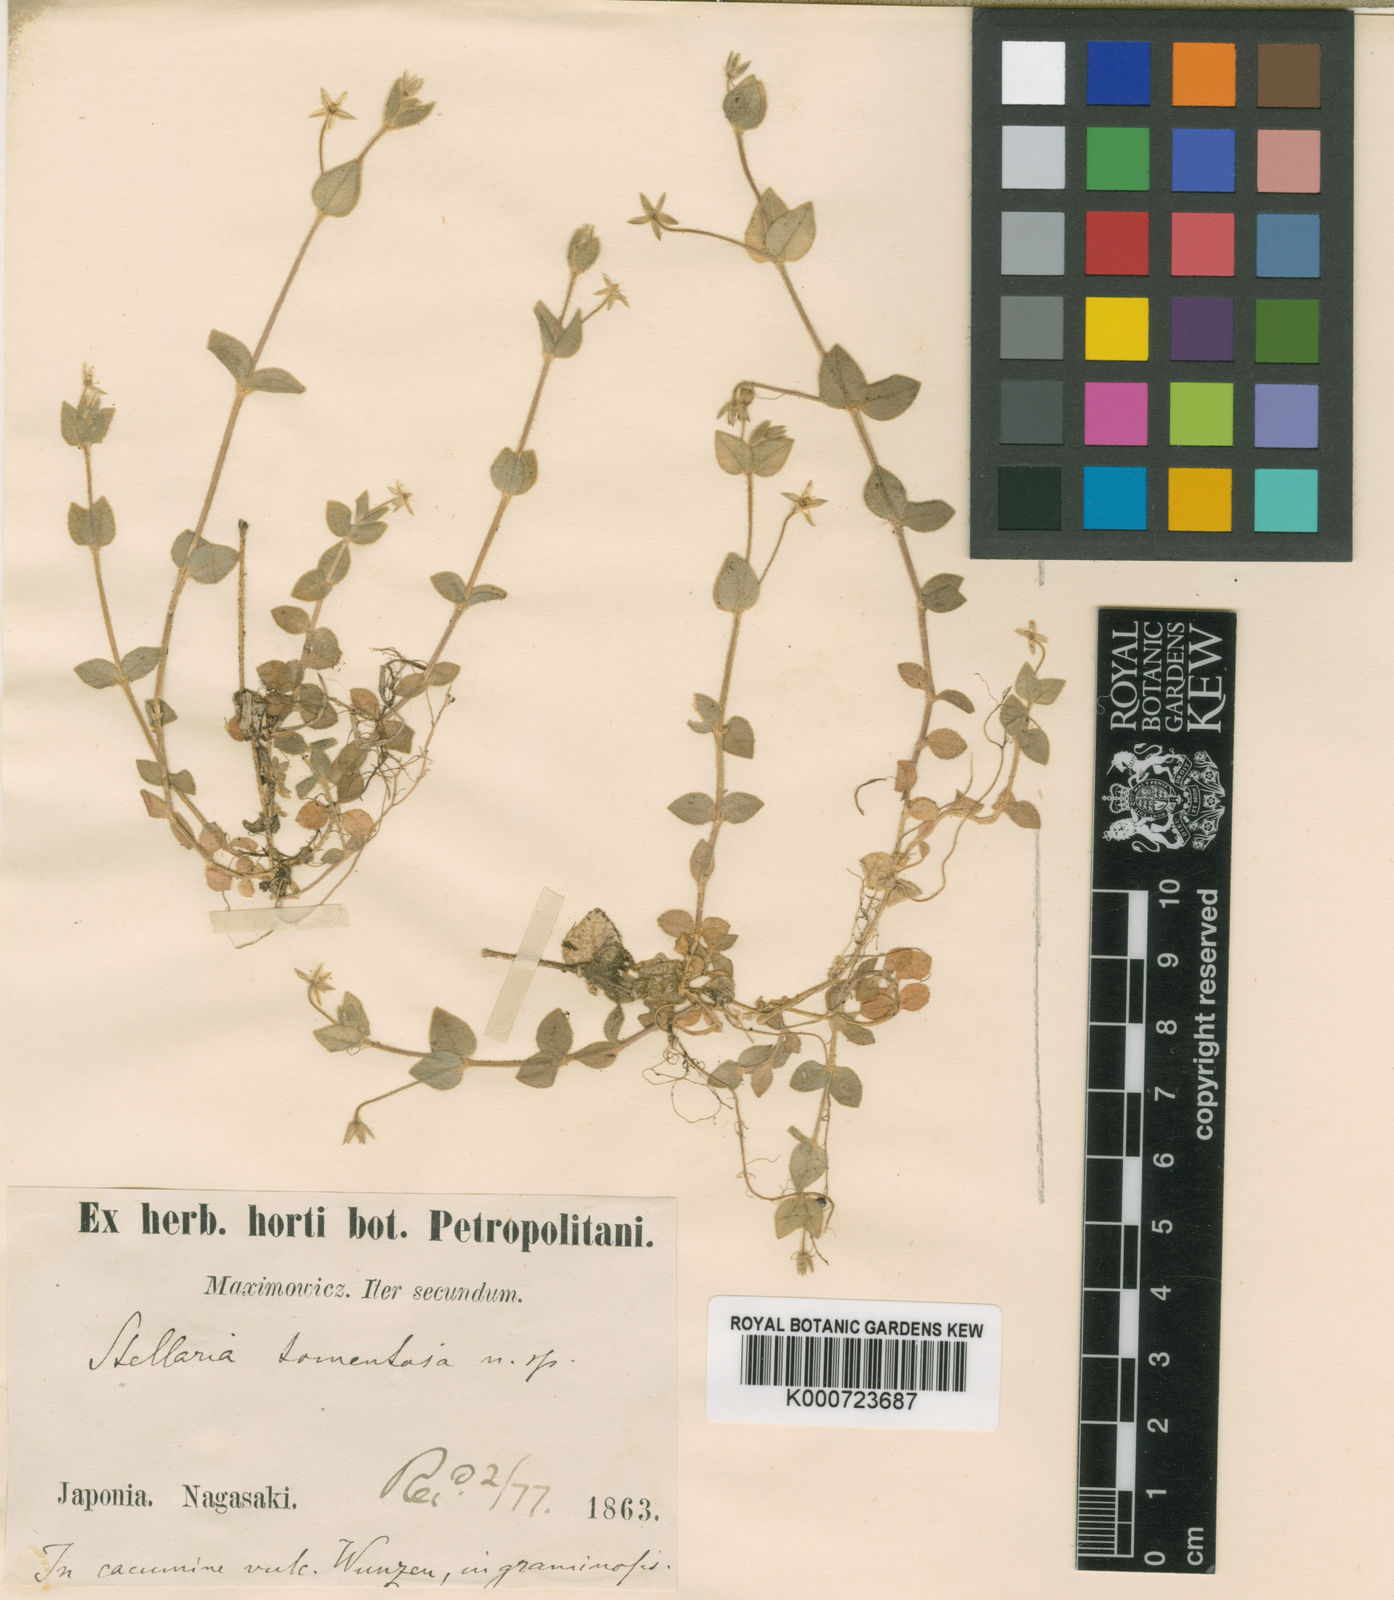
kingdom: Plantae
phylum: Tracheophyta
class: Magnoliopsida
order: Caryophyllales
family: Caryophyllaceae
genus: Stellaria
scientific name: Stellaria uchiyamana
